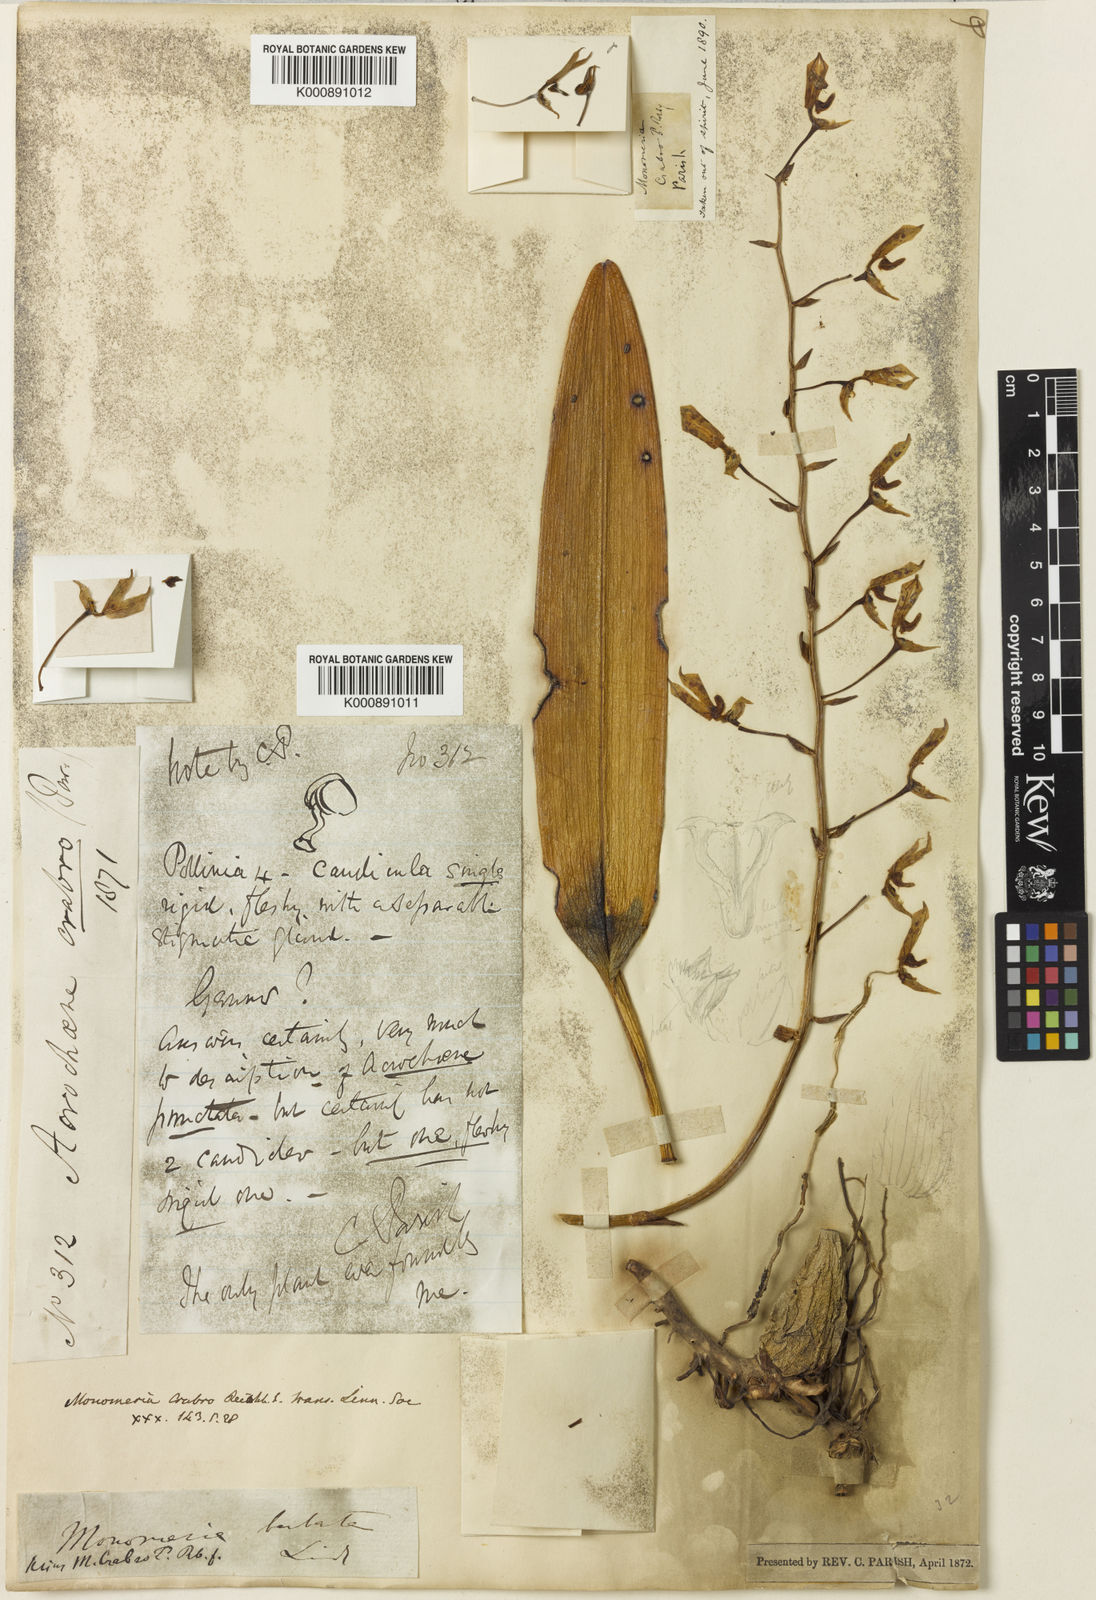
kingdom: Plantae
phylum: Tracheophyta
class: Liliopsida
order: Asparagales
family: Orchidaceae
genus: Bulbophyllum
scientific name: Bulbophyllum kingii
